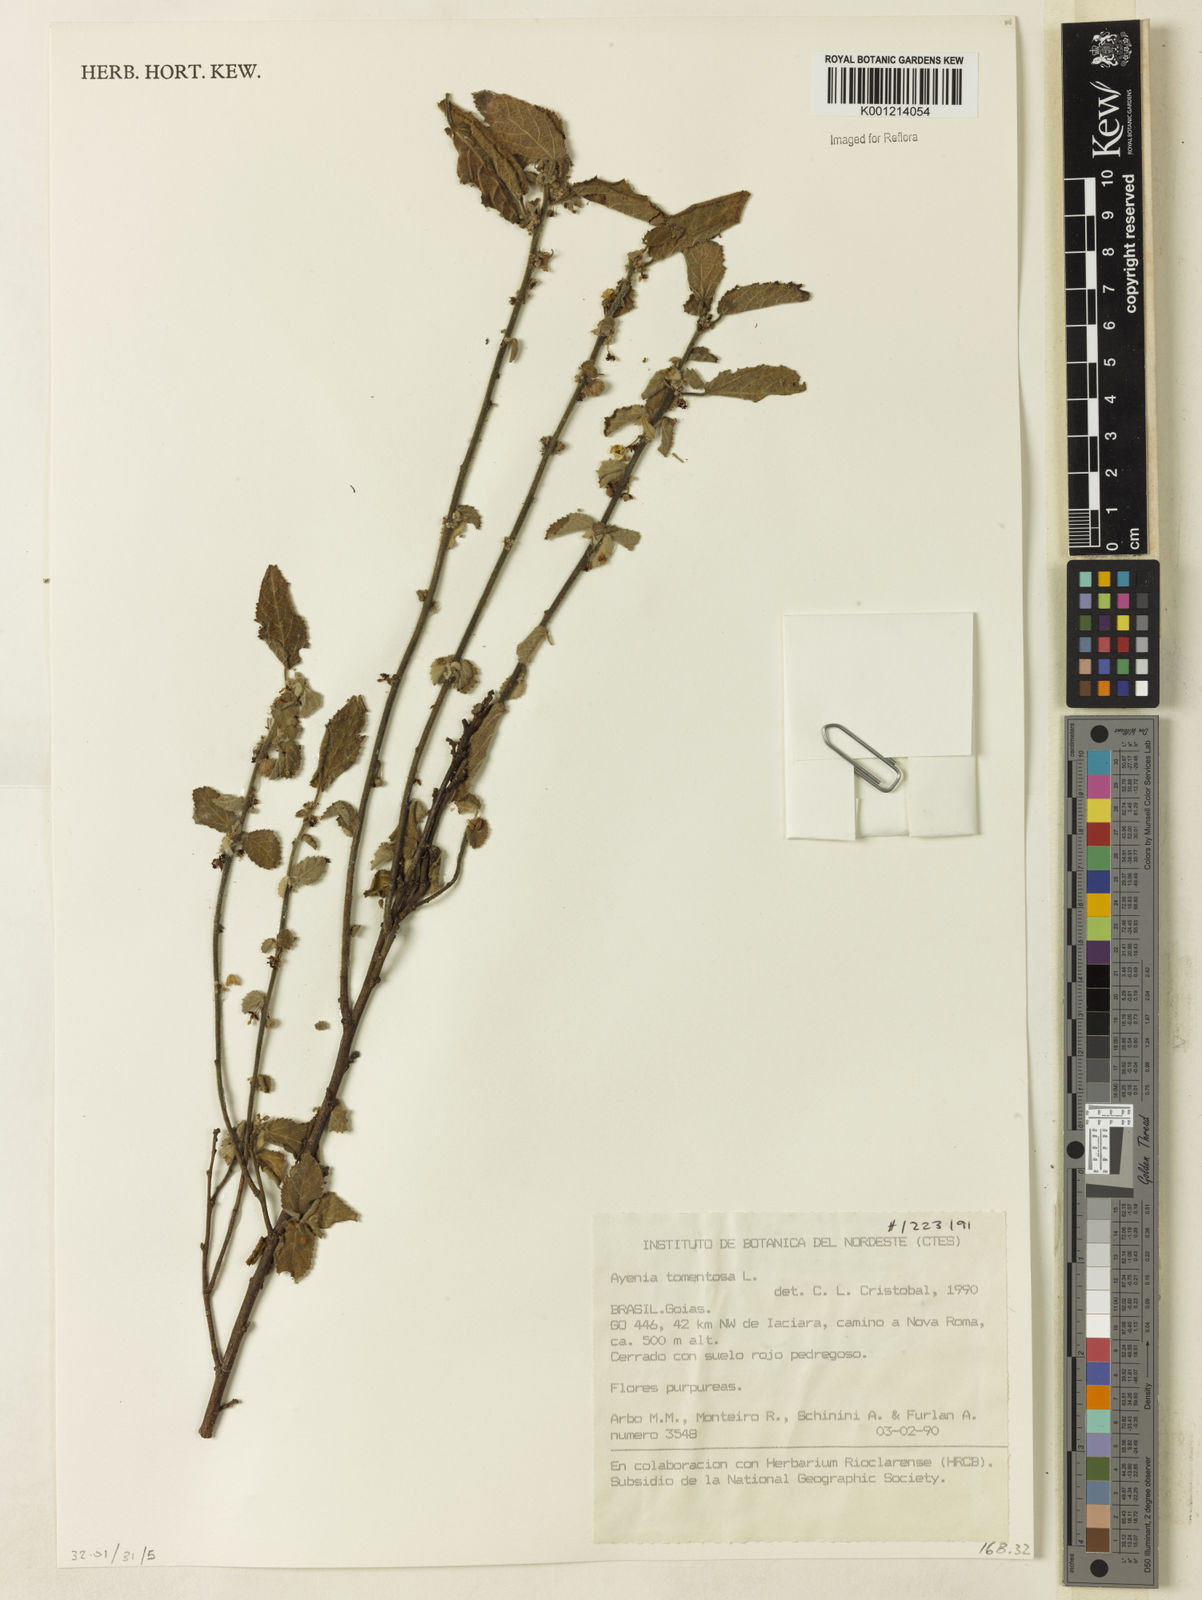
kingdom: Plantae
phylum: Tracheophyta
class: Magnoliopsida
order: Malvales
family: Malvaceae
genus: Ayenia
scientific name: Ayenia tomentosa
